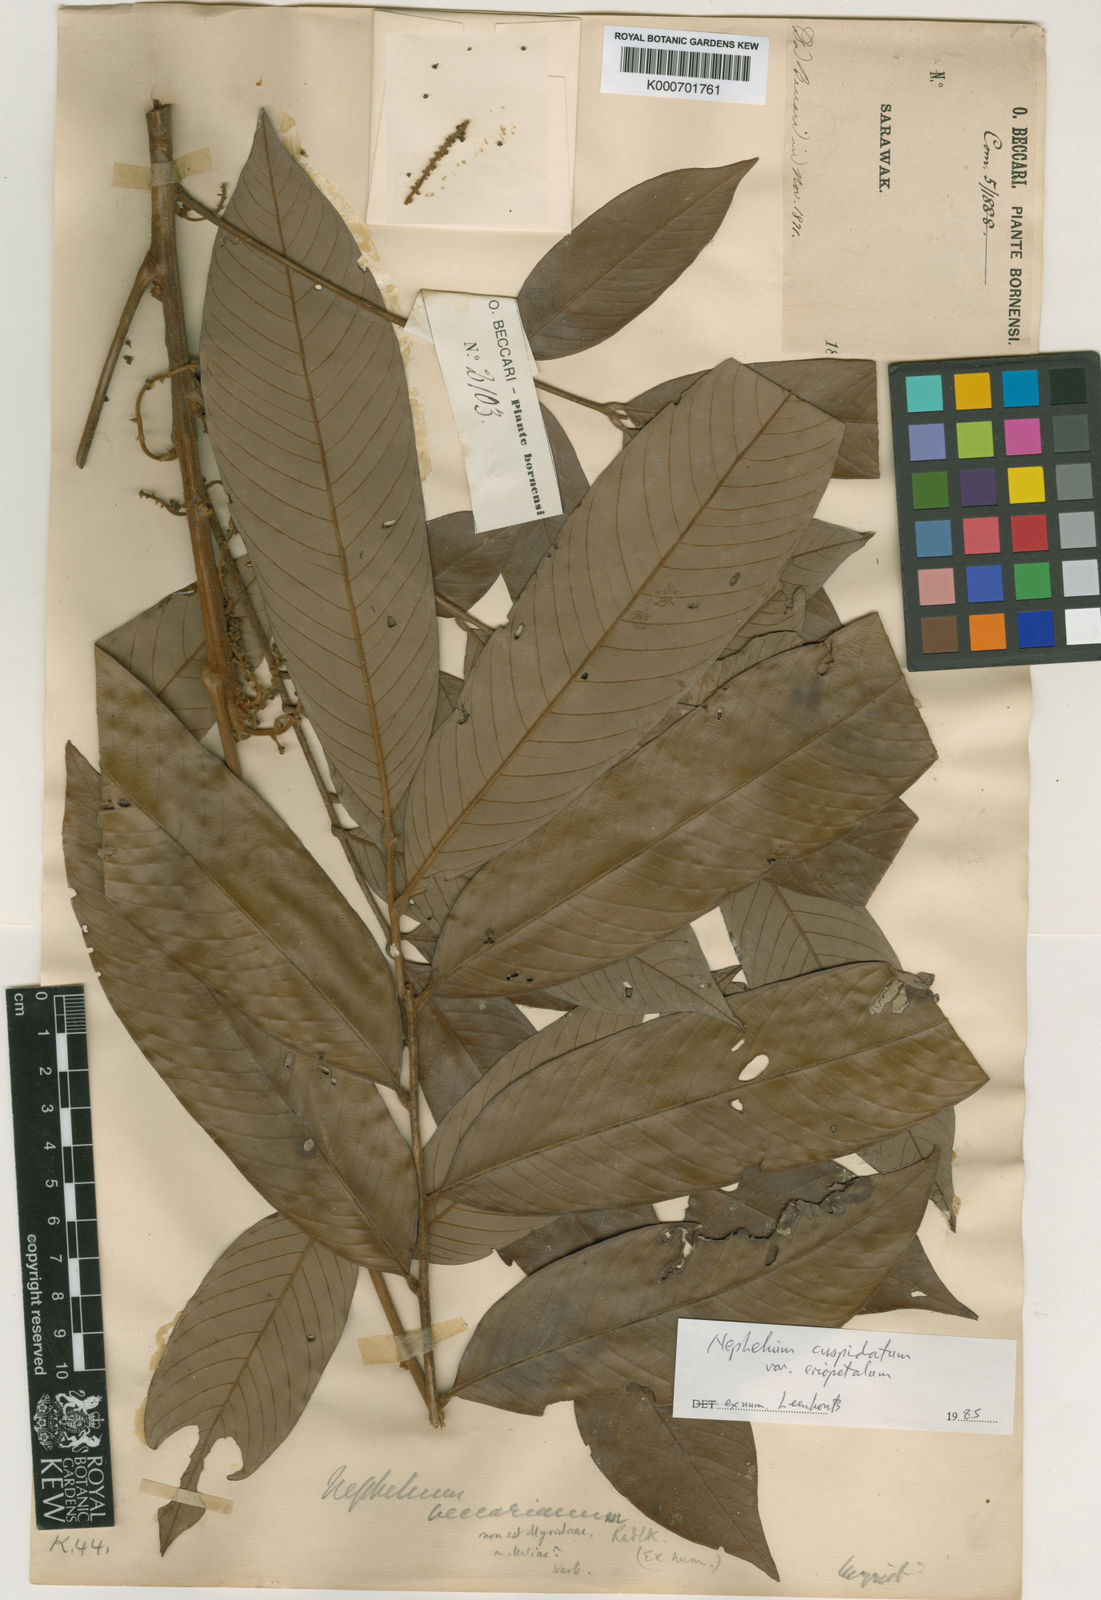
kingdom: Plantae
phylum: Tracheophyta
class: Magnoliopsida
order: Sapindales
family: Sapindaceae
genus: Nephelium
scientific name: Nephelium cuspidatum
